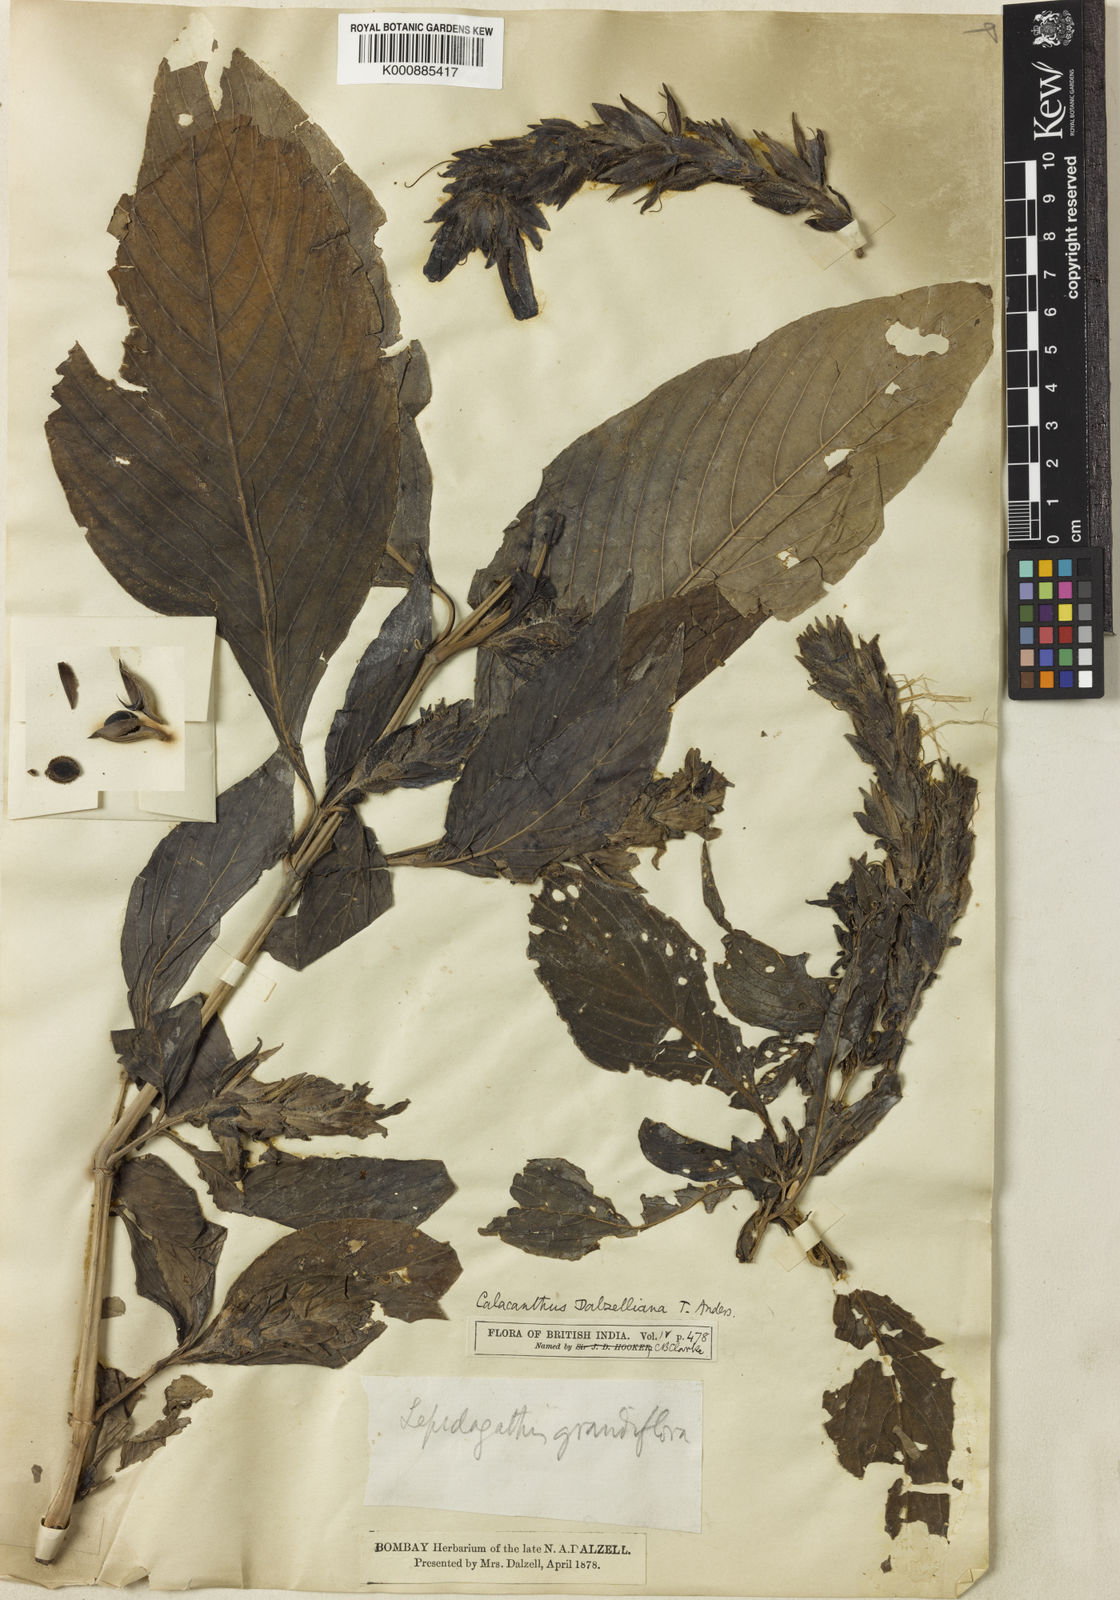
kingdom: Plantae
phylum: Tracheophyta
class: Magnoliopsida
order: Lamiales
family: Acanthaceae
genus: Calacanthus
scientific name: Calacanthus grandiflorus
